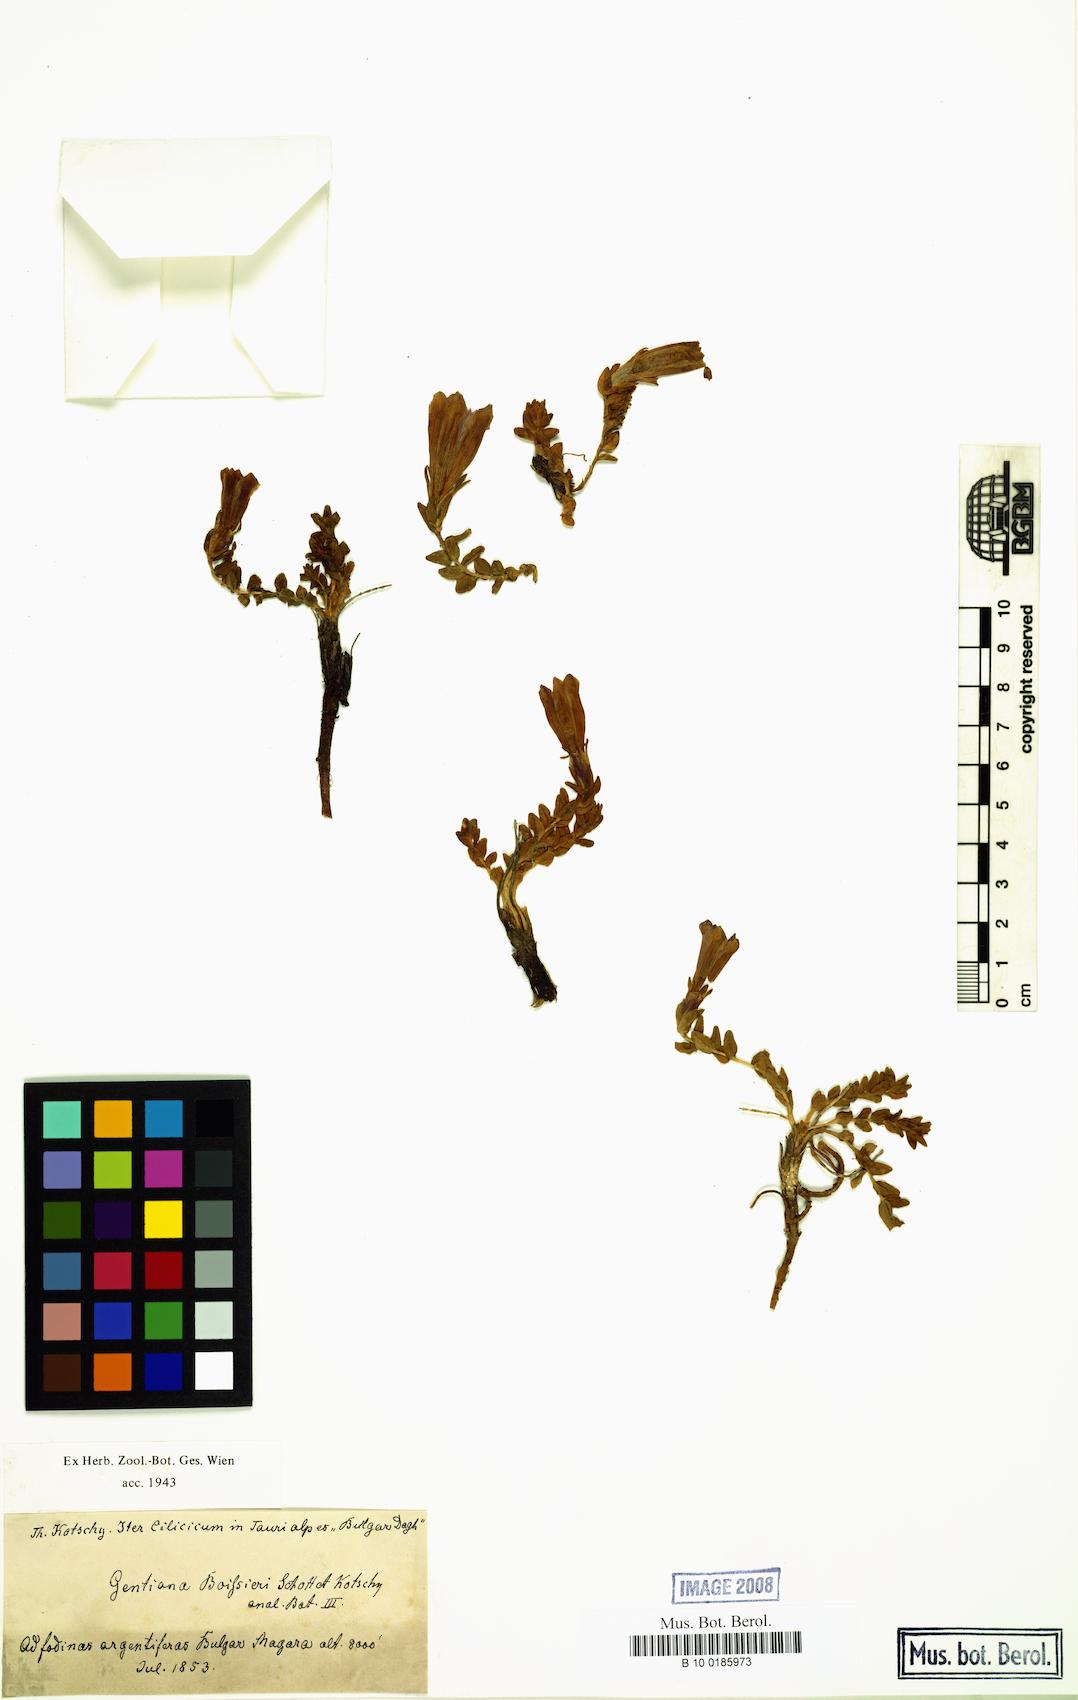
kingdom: Plantae
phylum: Tracheophyta
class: Magnoliopsida
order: Gentianales
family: Gentianaceae
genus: Gentiana
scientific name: Gentiana boissieri
